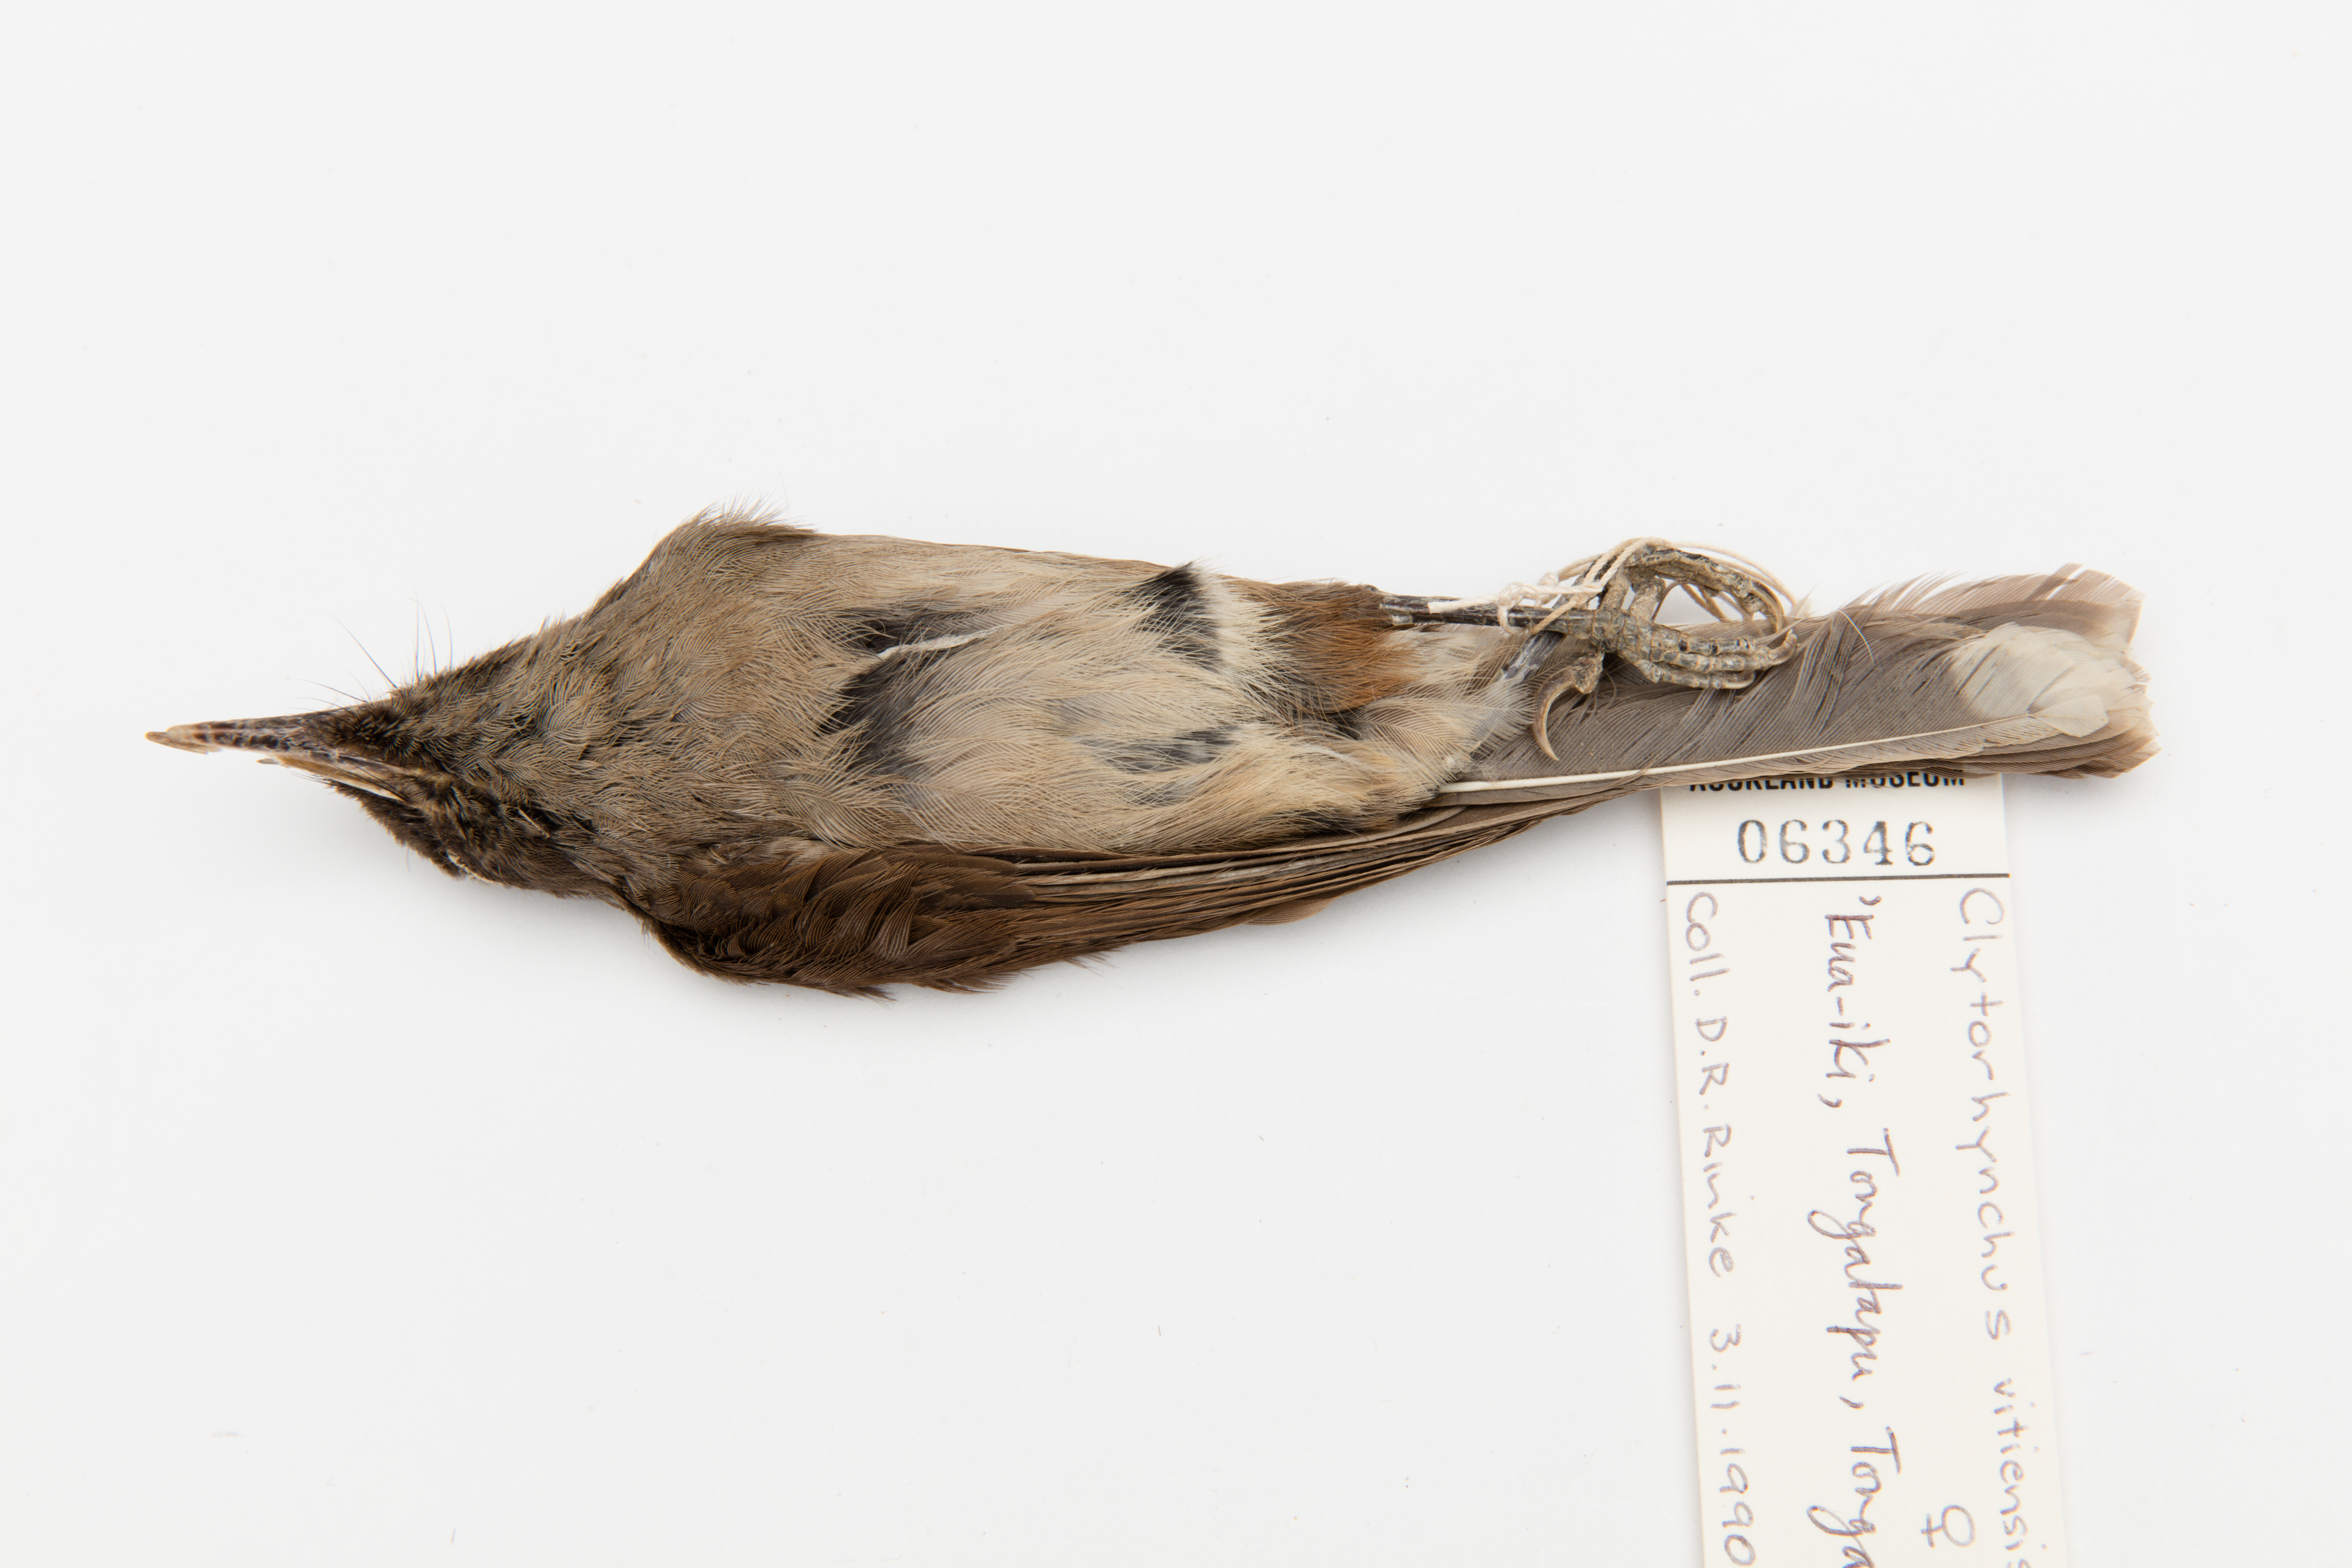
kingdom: Animalia
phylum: Chordata
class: Aves
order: Passeriformes
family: Monarchidae
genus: Clytorhynchus
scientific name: Clytorhynchus vitiensis
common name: Fiji shrikebill
